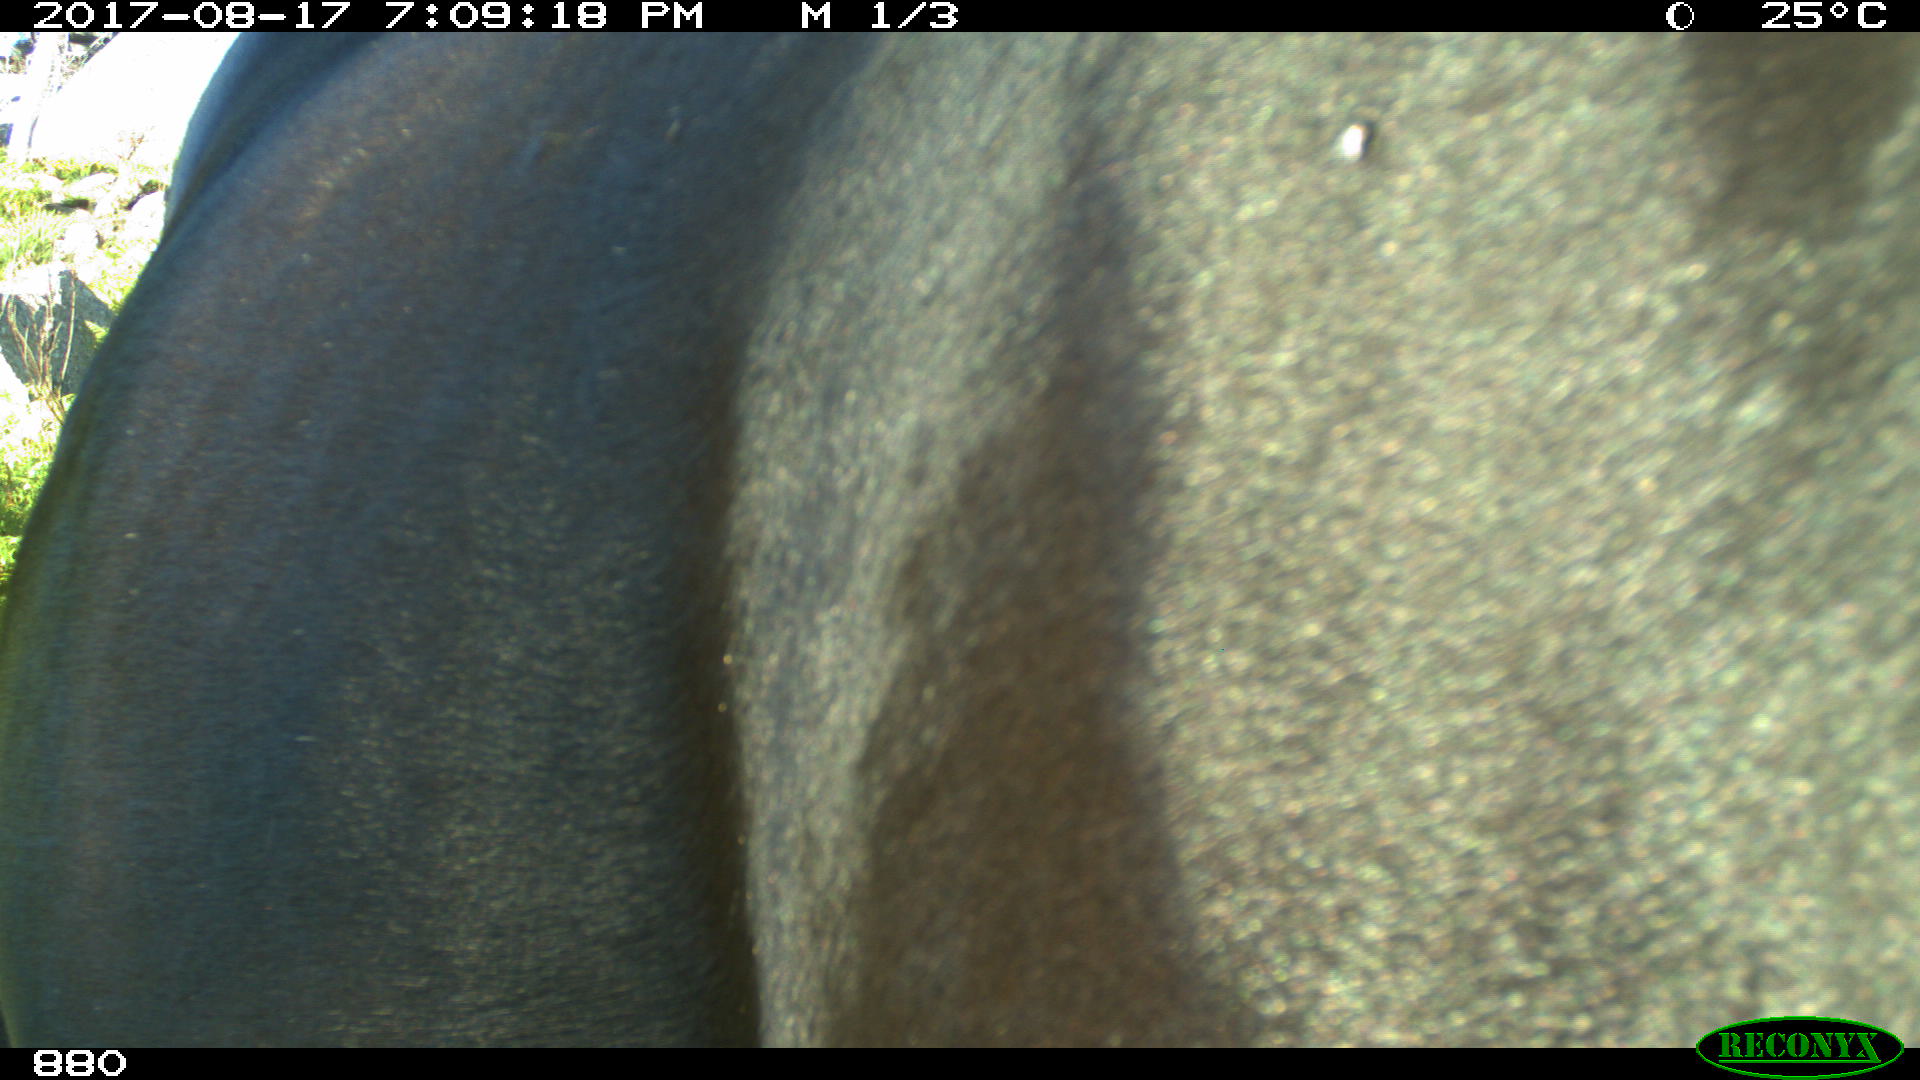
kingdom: Animalia
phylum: Chordata
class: Mammalia
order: Perissodactyla
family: Equidae
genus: Equus
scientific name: Equus caballus
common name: Horse
